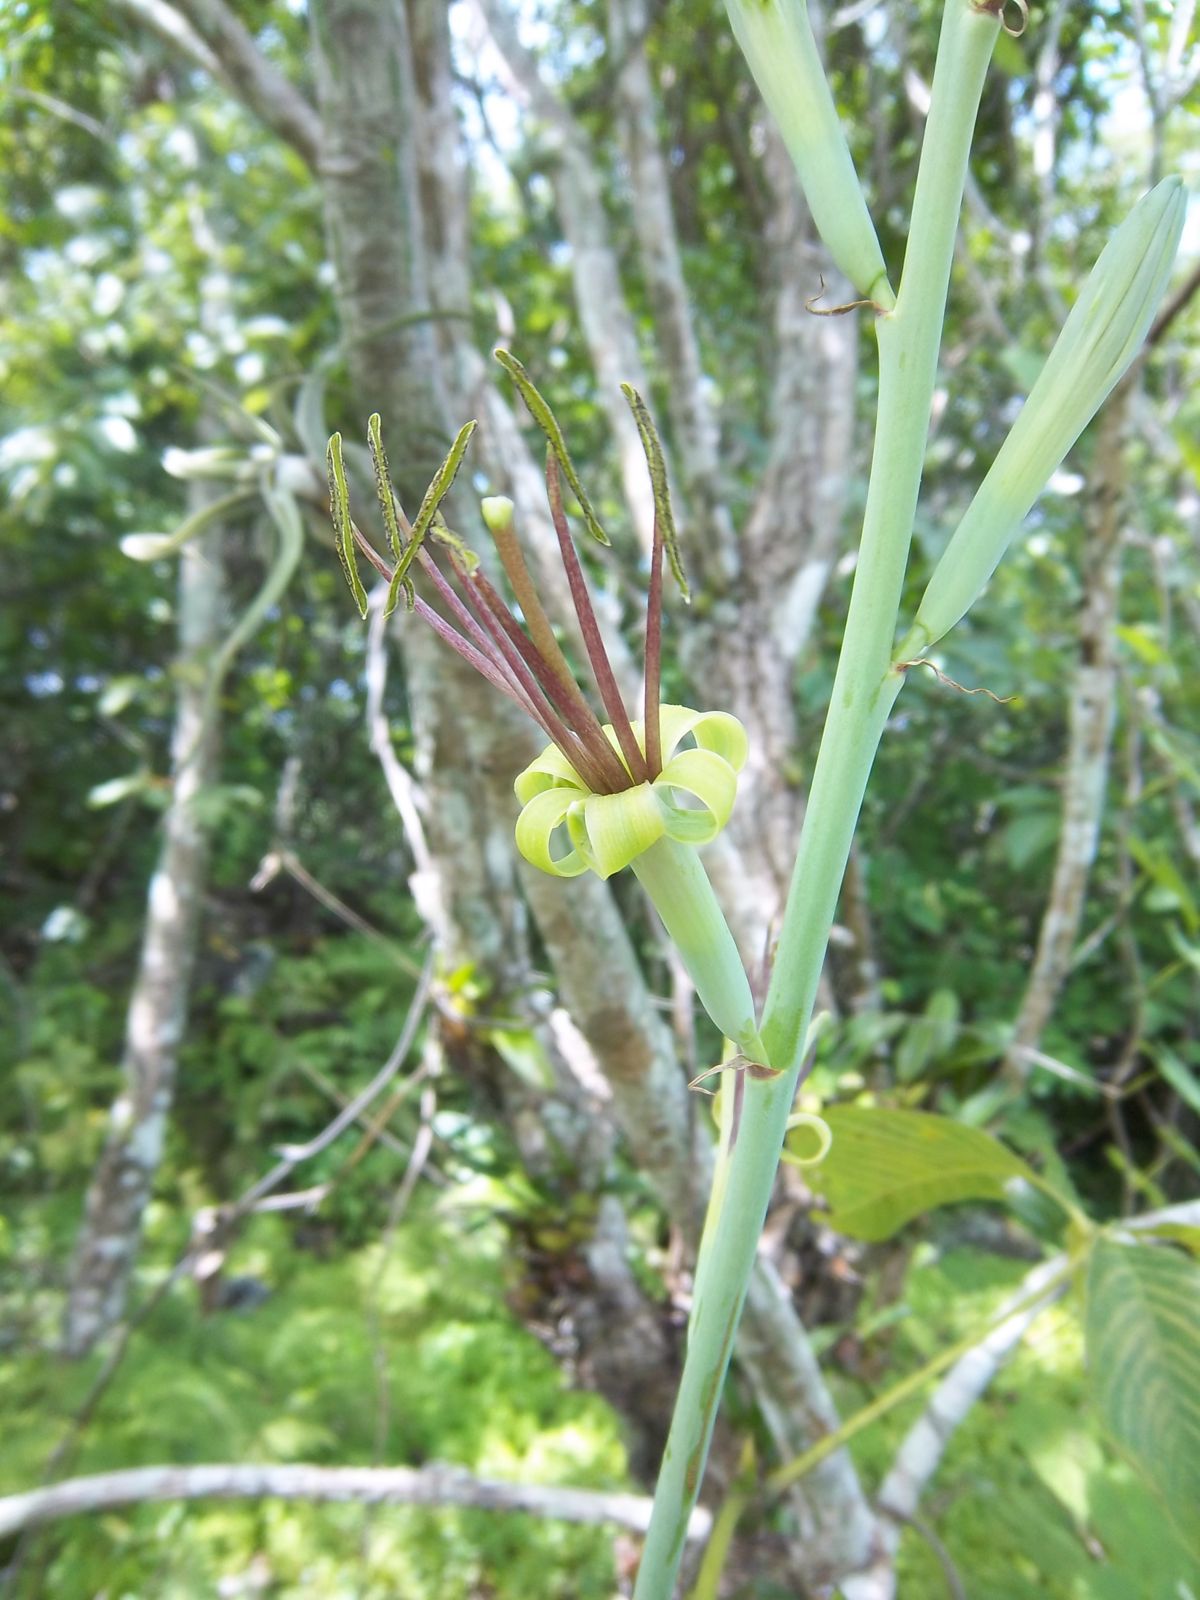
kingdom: Plantae
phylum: Tracheophyta
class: Liliopsida
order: Asparagales
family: Asparagaceae
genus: Agave
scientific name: Agave scabra
